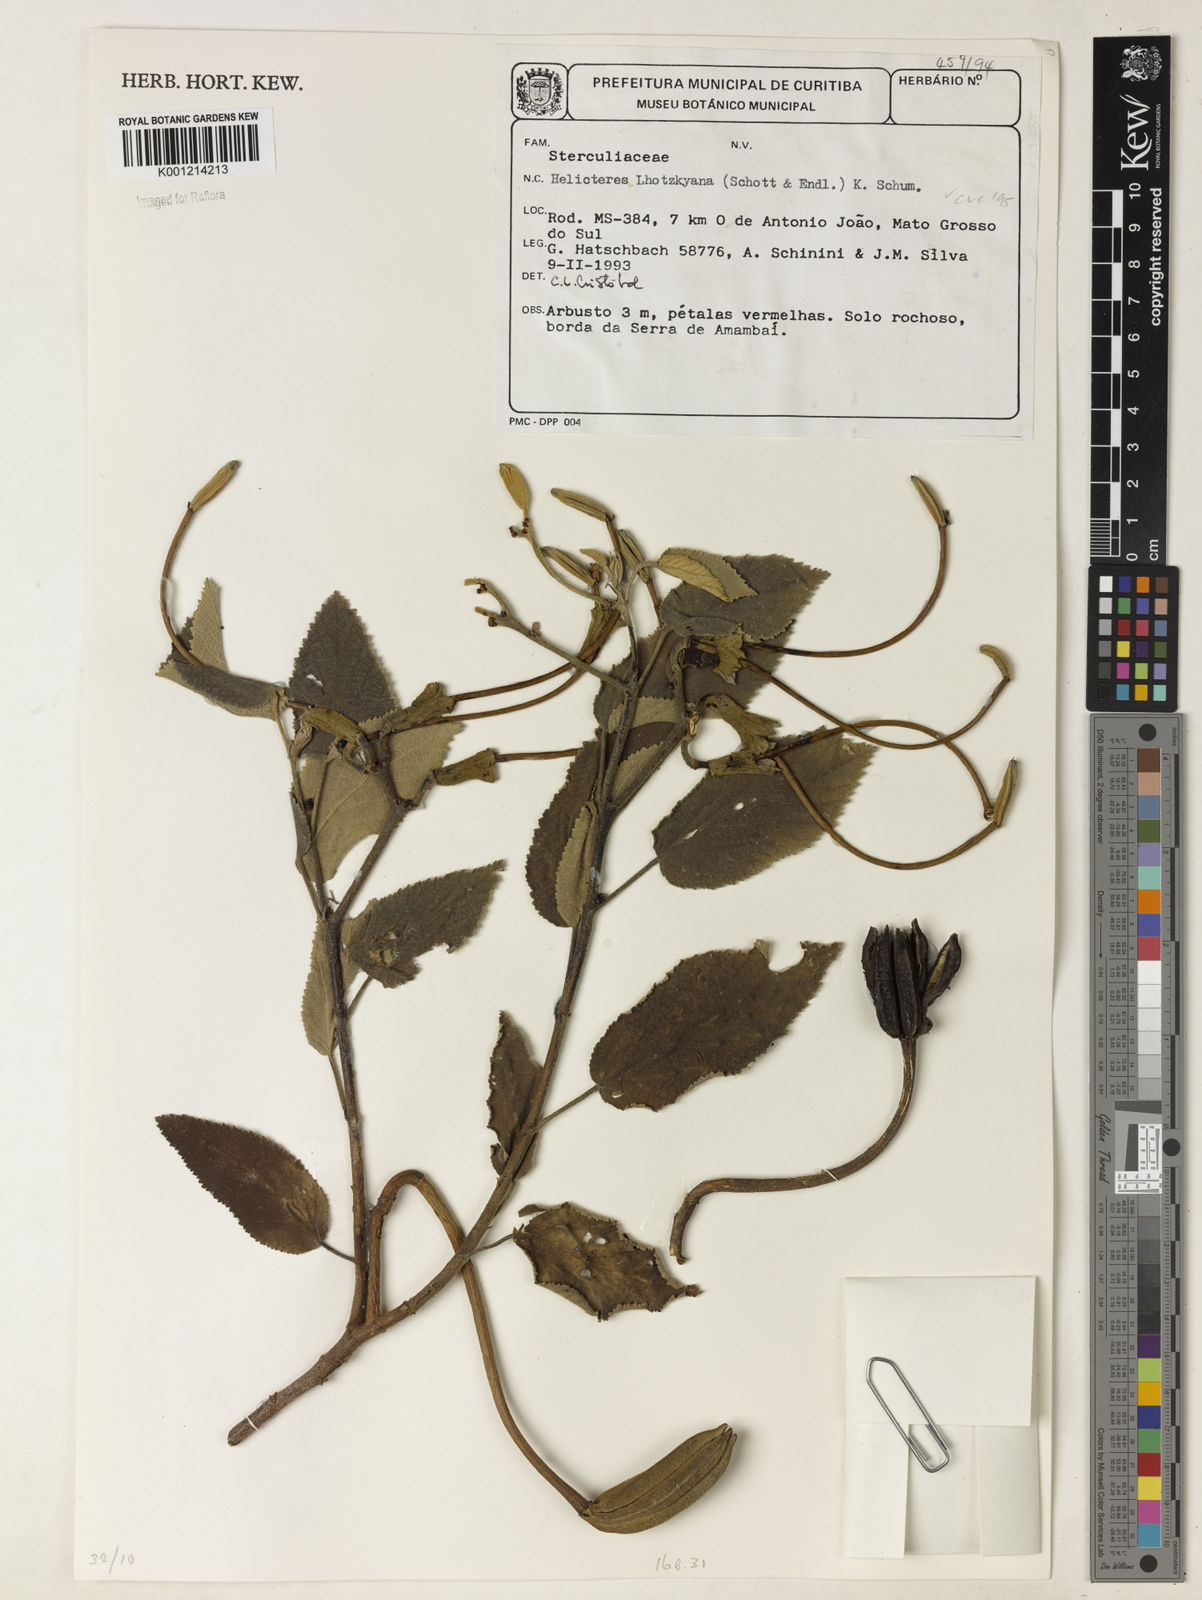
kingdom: Plantae
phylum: Tracheophyta
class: Magnoliopsida
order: Malvales
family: Malvaceae
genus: Helicteres
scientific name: Helicteres lhotzkyana
